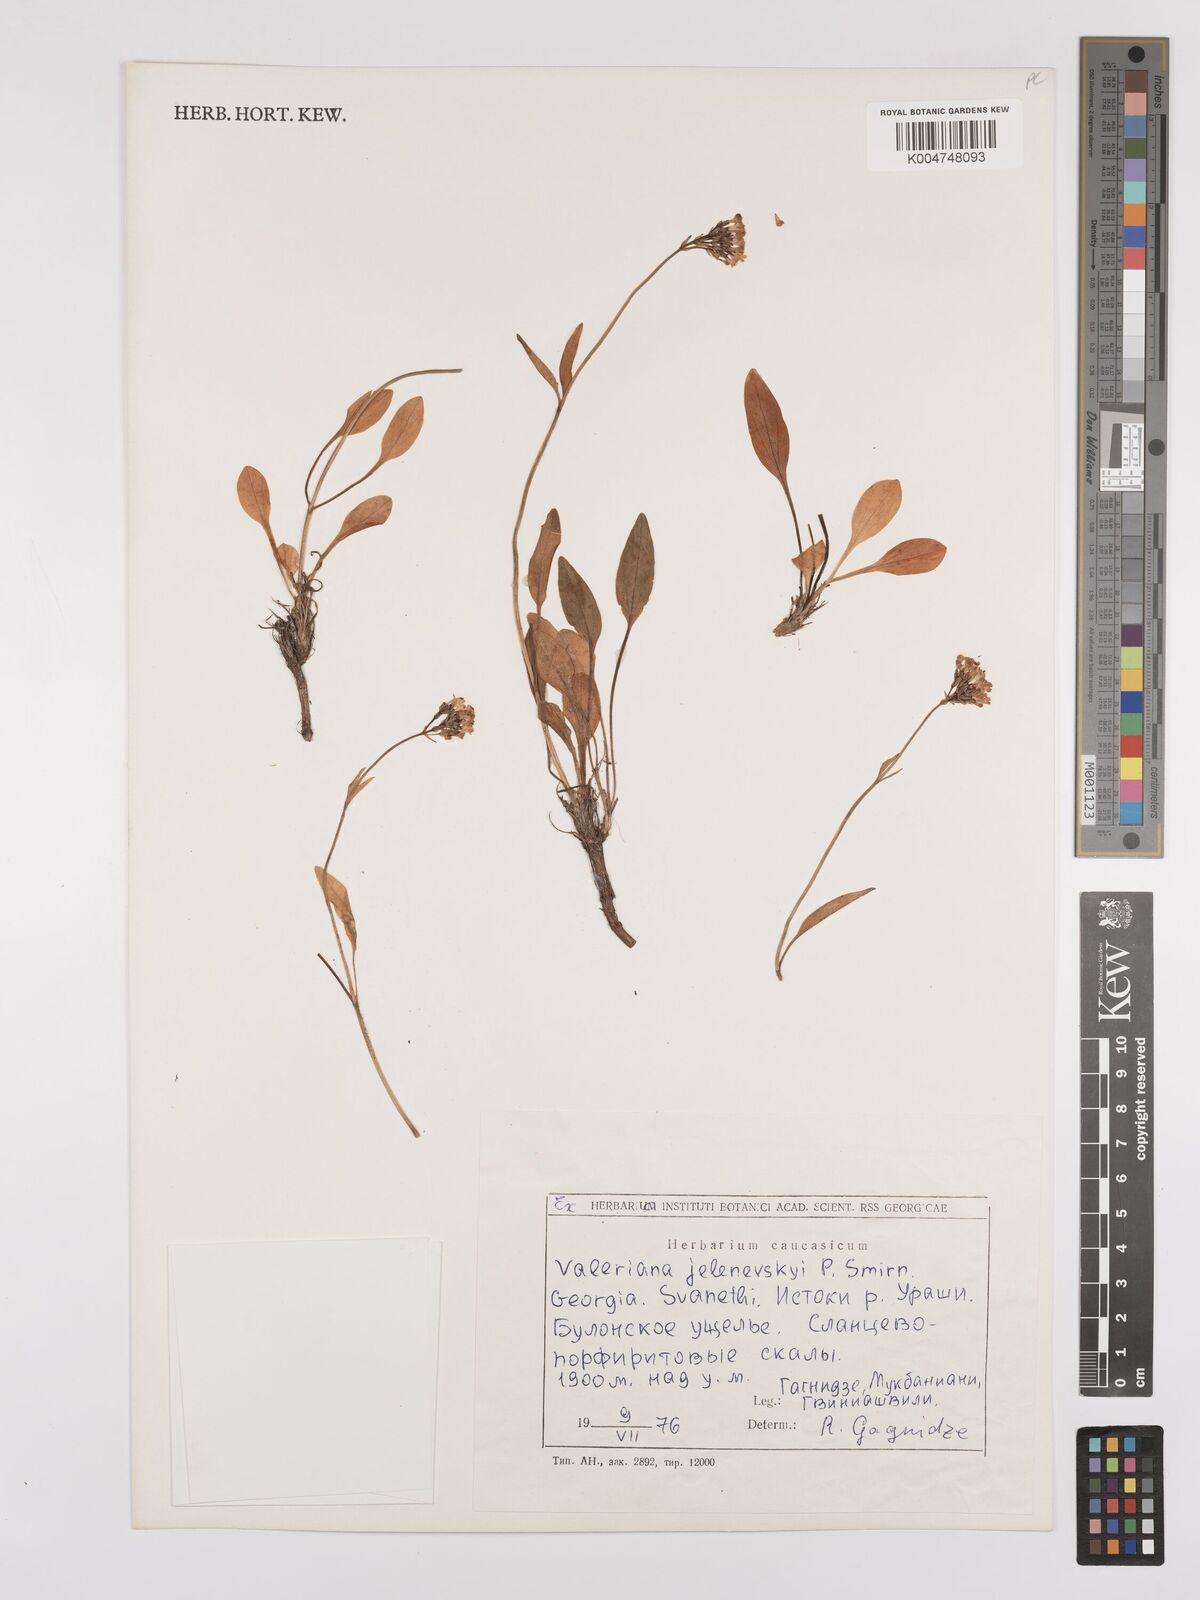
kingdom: Plantae
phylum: Tracheophyta
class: Magnoliopsida
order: Dipsacales
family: Caprifoliaceae
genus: Valeriana
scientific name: Valeriana jelenevskyi
